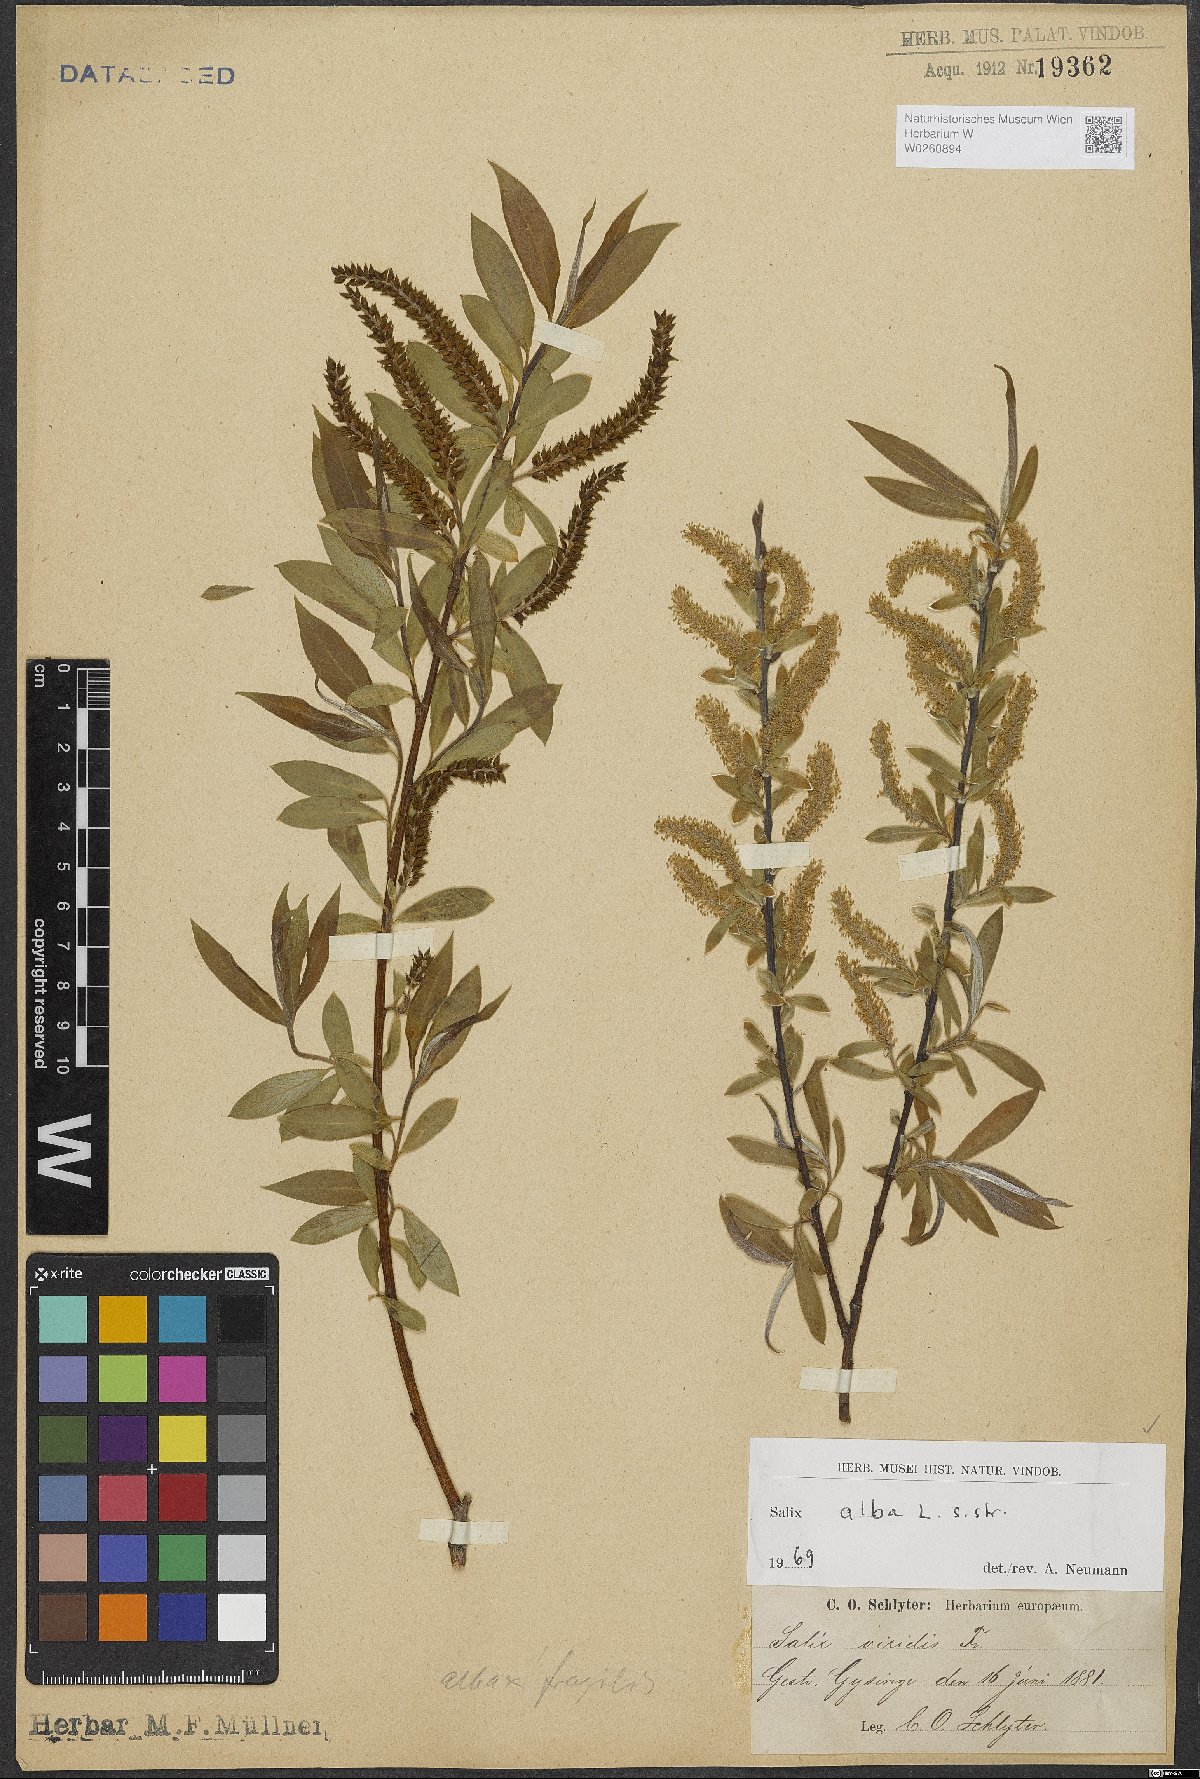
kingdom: Plantae
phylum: Tracheophyta
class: Magnoliopsida
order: Malpighiales
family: Salicaceae
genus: Salix
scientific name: Salix alba
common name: White willow
